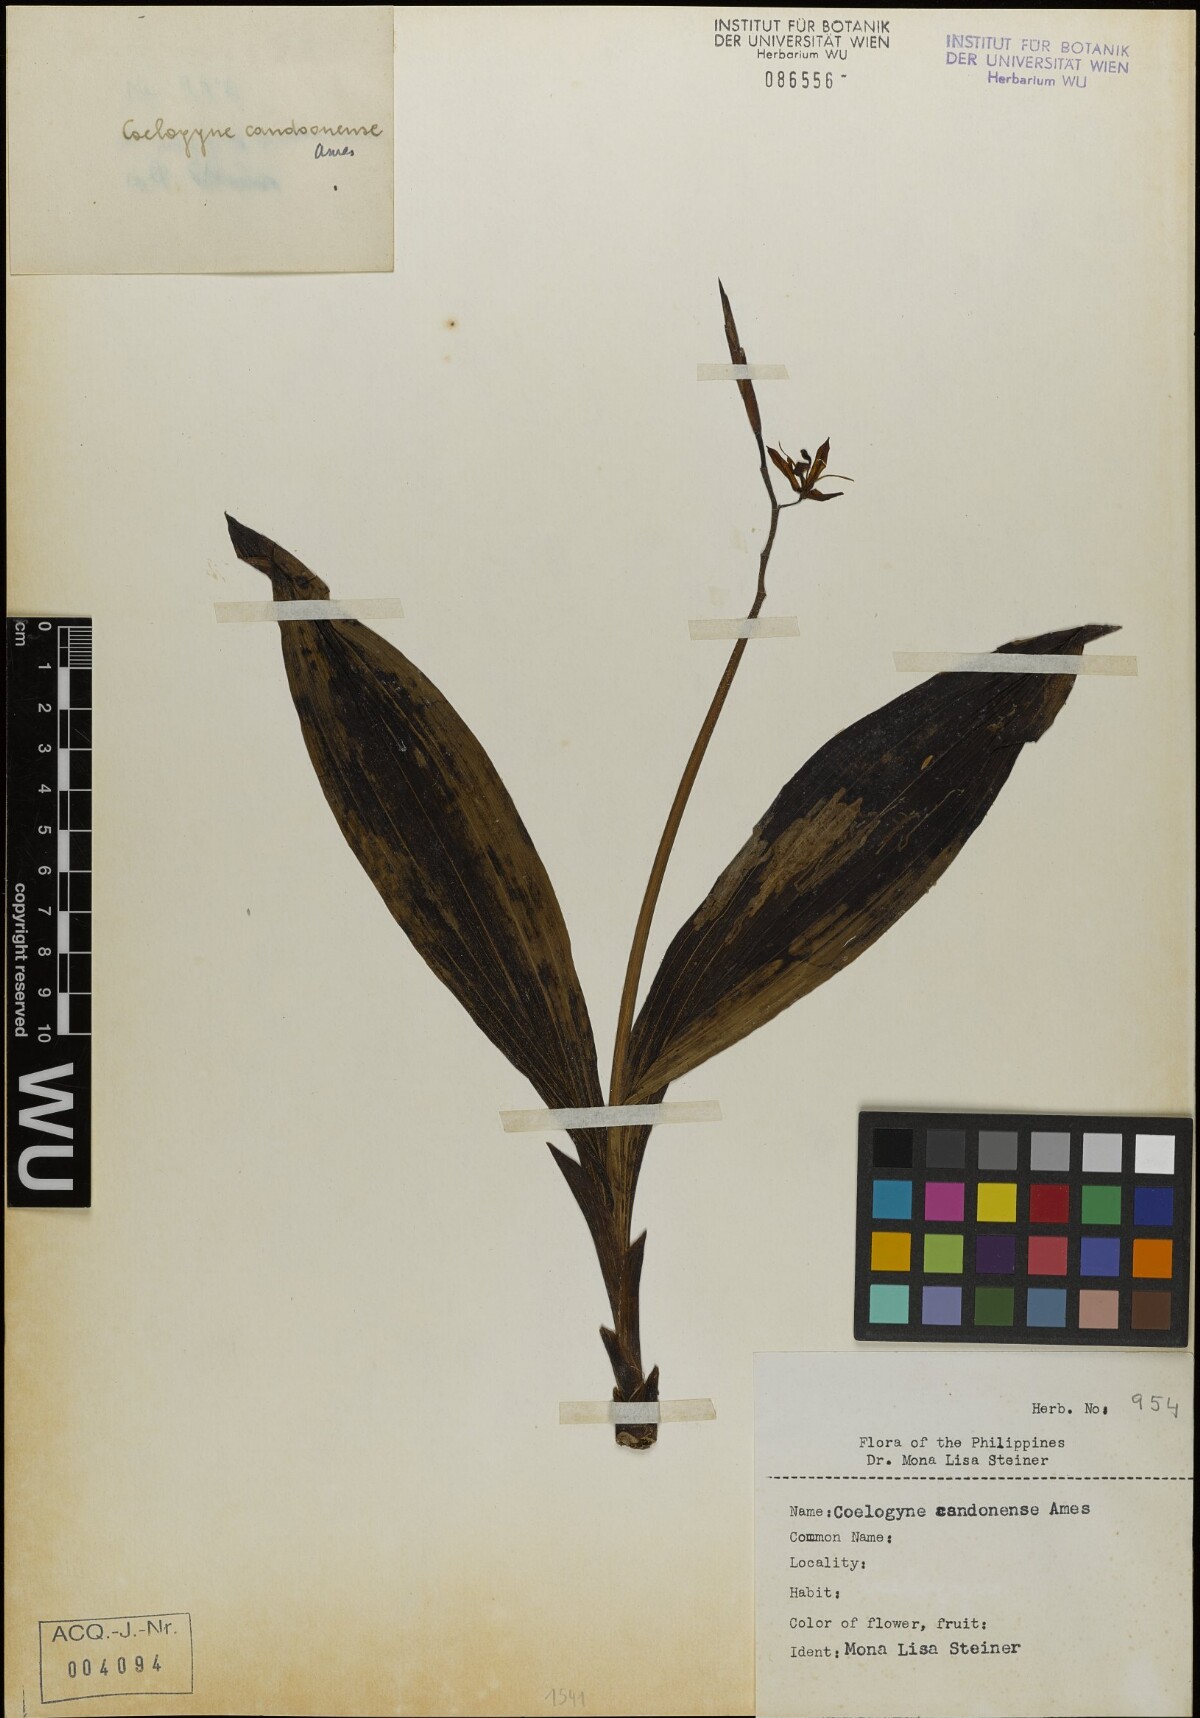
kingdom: Plantae
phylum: Tracheophyta
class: Liliopsida
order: Asparagales
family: Orchidaceae
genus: Coelogyne
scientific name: Coelogyne candoonensis
